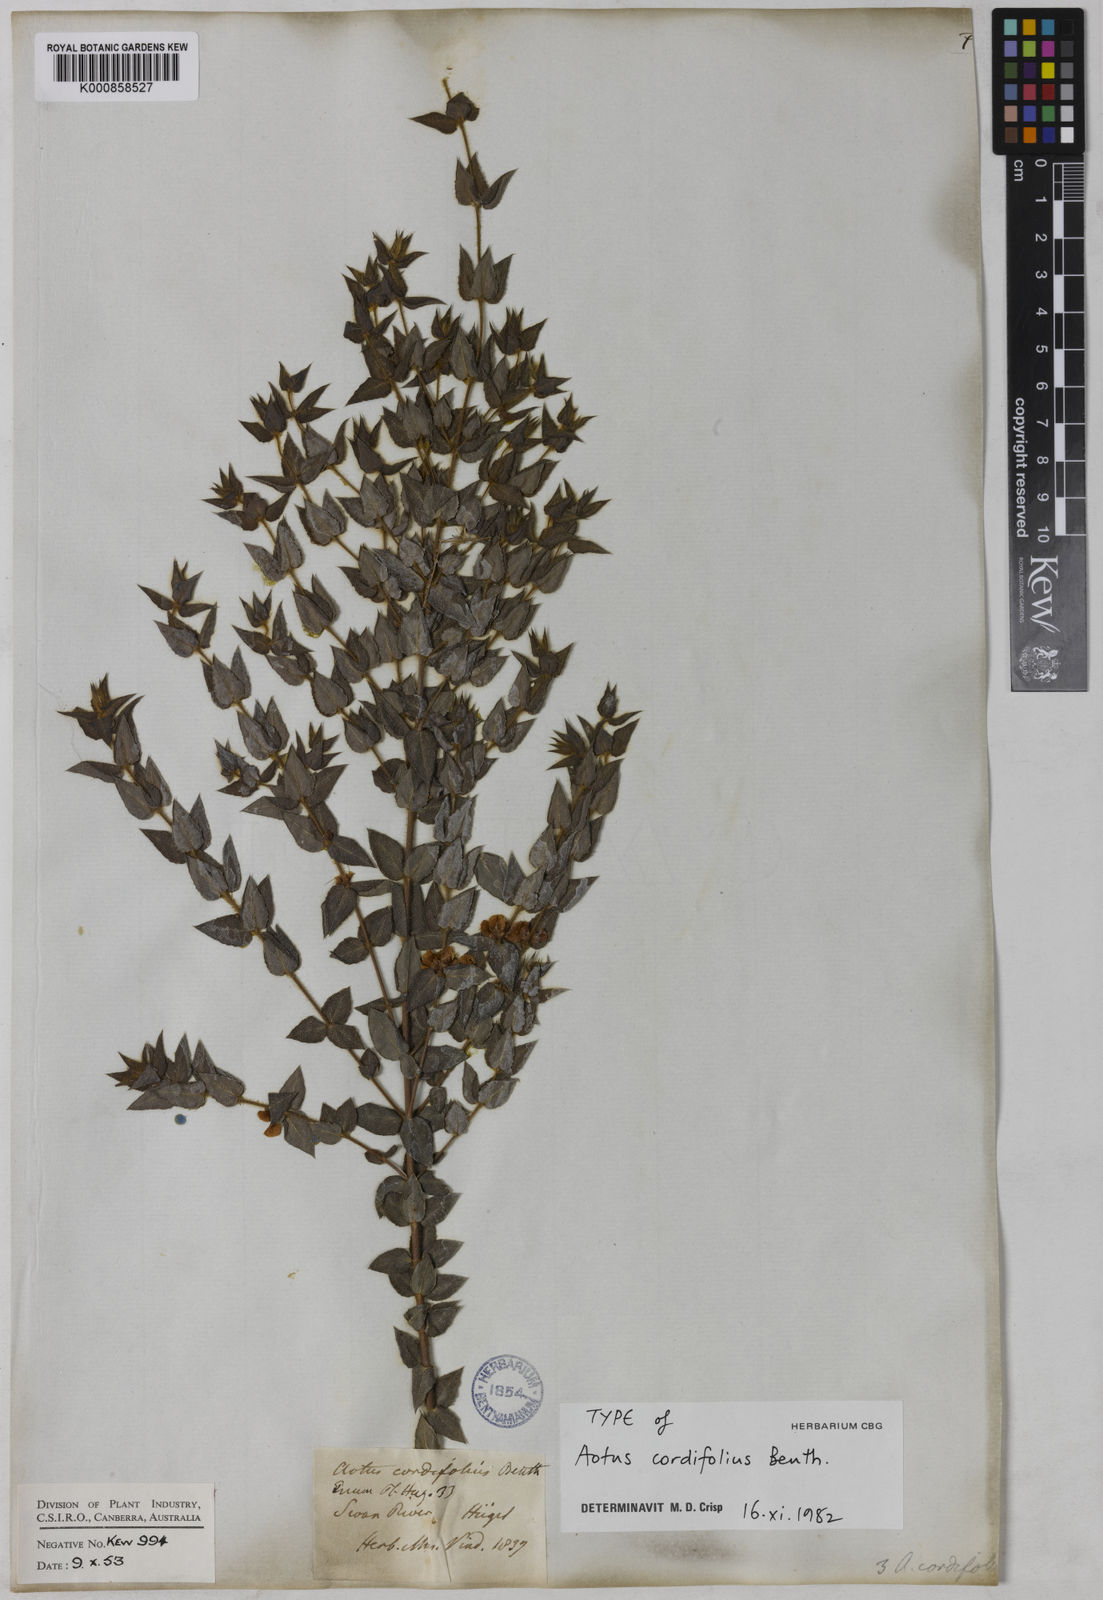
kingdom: Plantae
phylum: Tracheophyta
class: Magnoliopsida
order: Fabales
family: Fabaceae
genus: Aotus
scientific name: Aotus cordifolia
